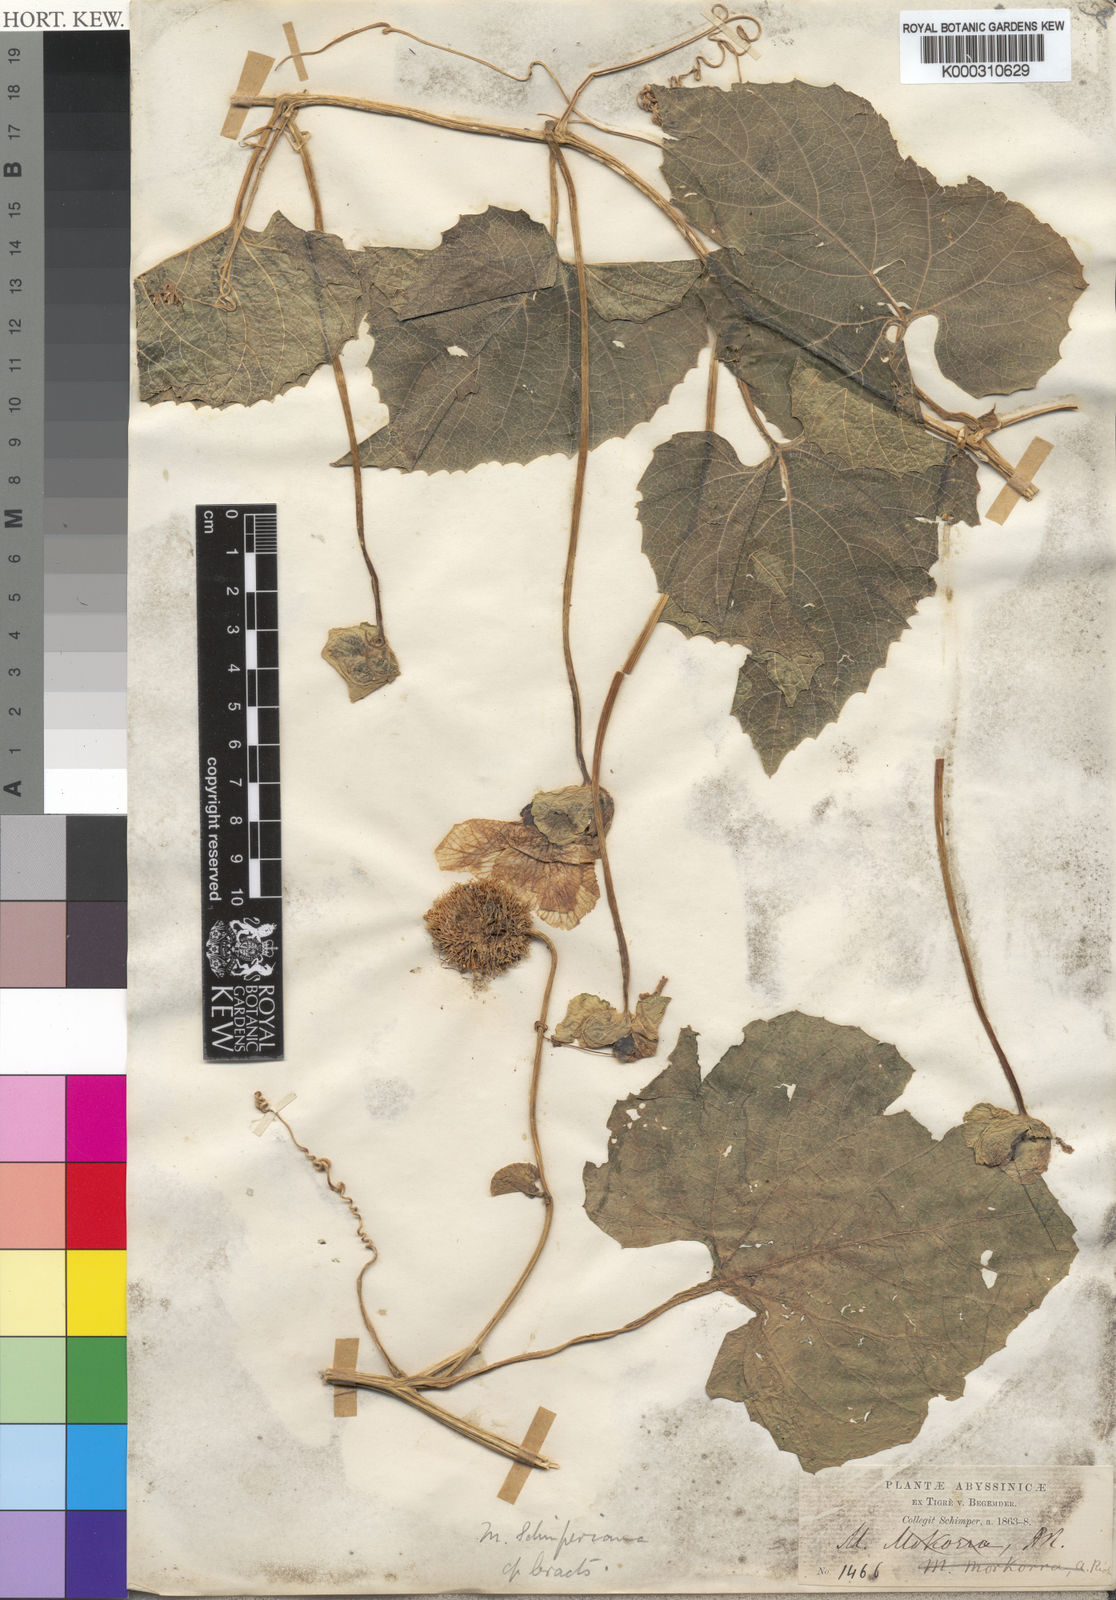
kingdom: Plantae
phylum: Tracheophyta
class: Magnoliopsida
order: Cucurbitales
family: Cucurbitaceae
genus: Momordica
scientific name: Momordica foetida
